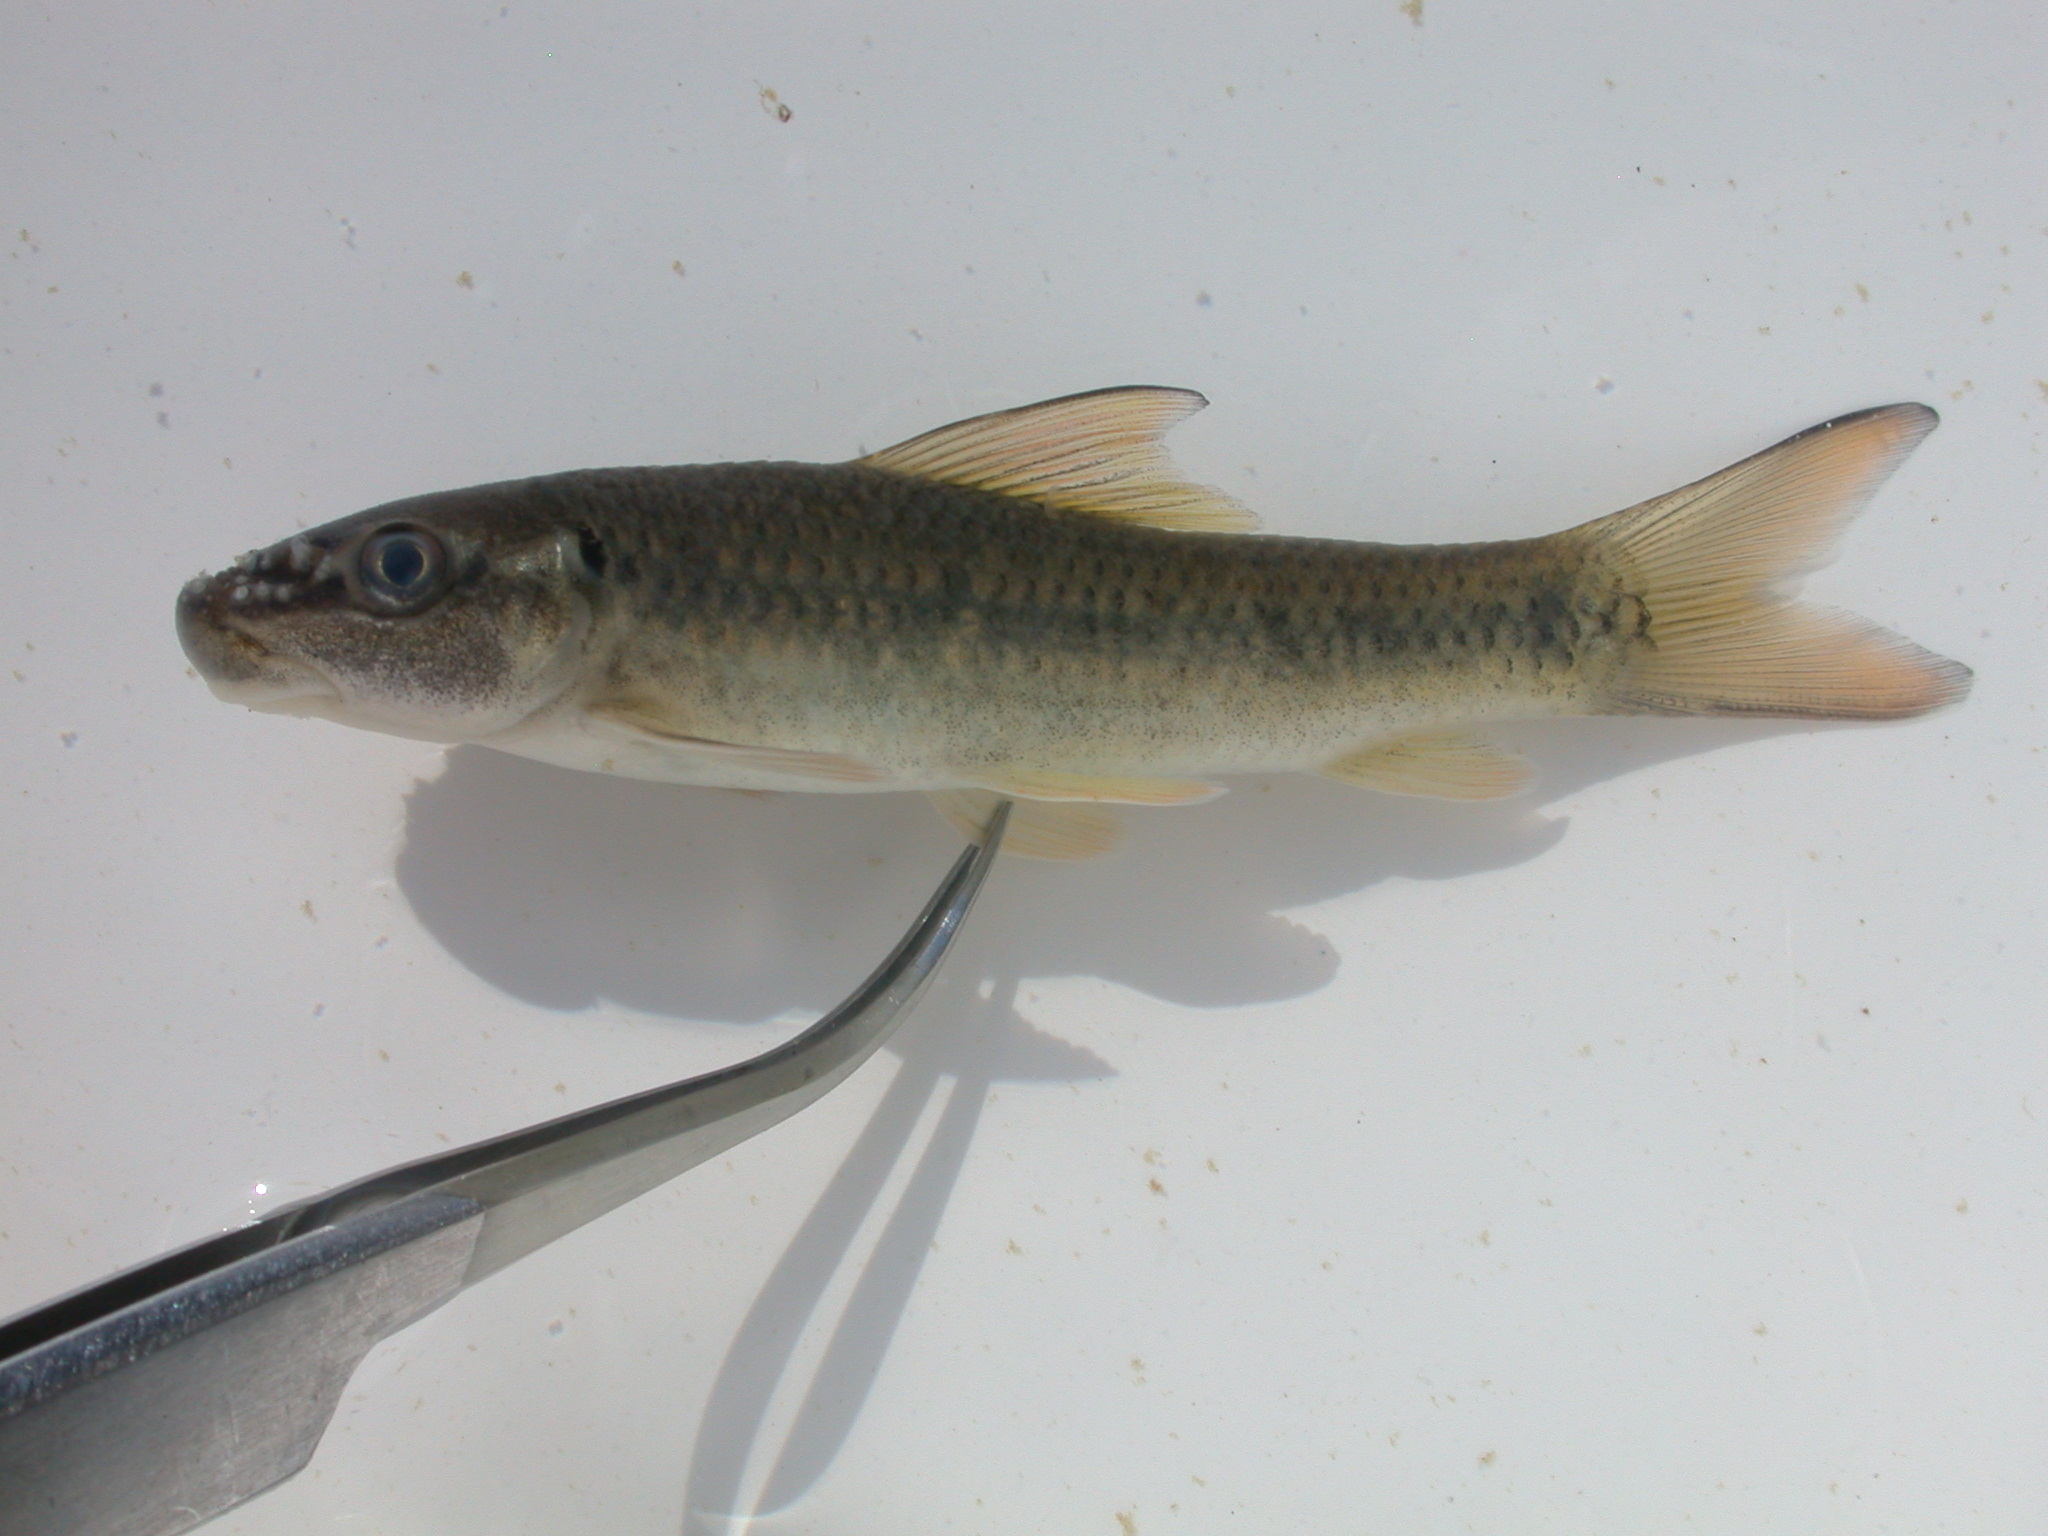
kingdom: Animalia
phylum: Chordata
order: Cypriniformes
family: Cyprinidae
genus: Labeo
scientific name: Labeo molybdinus
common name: Leaden labeo
